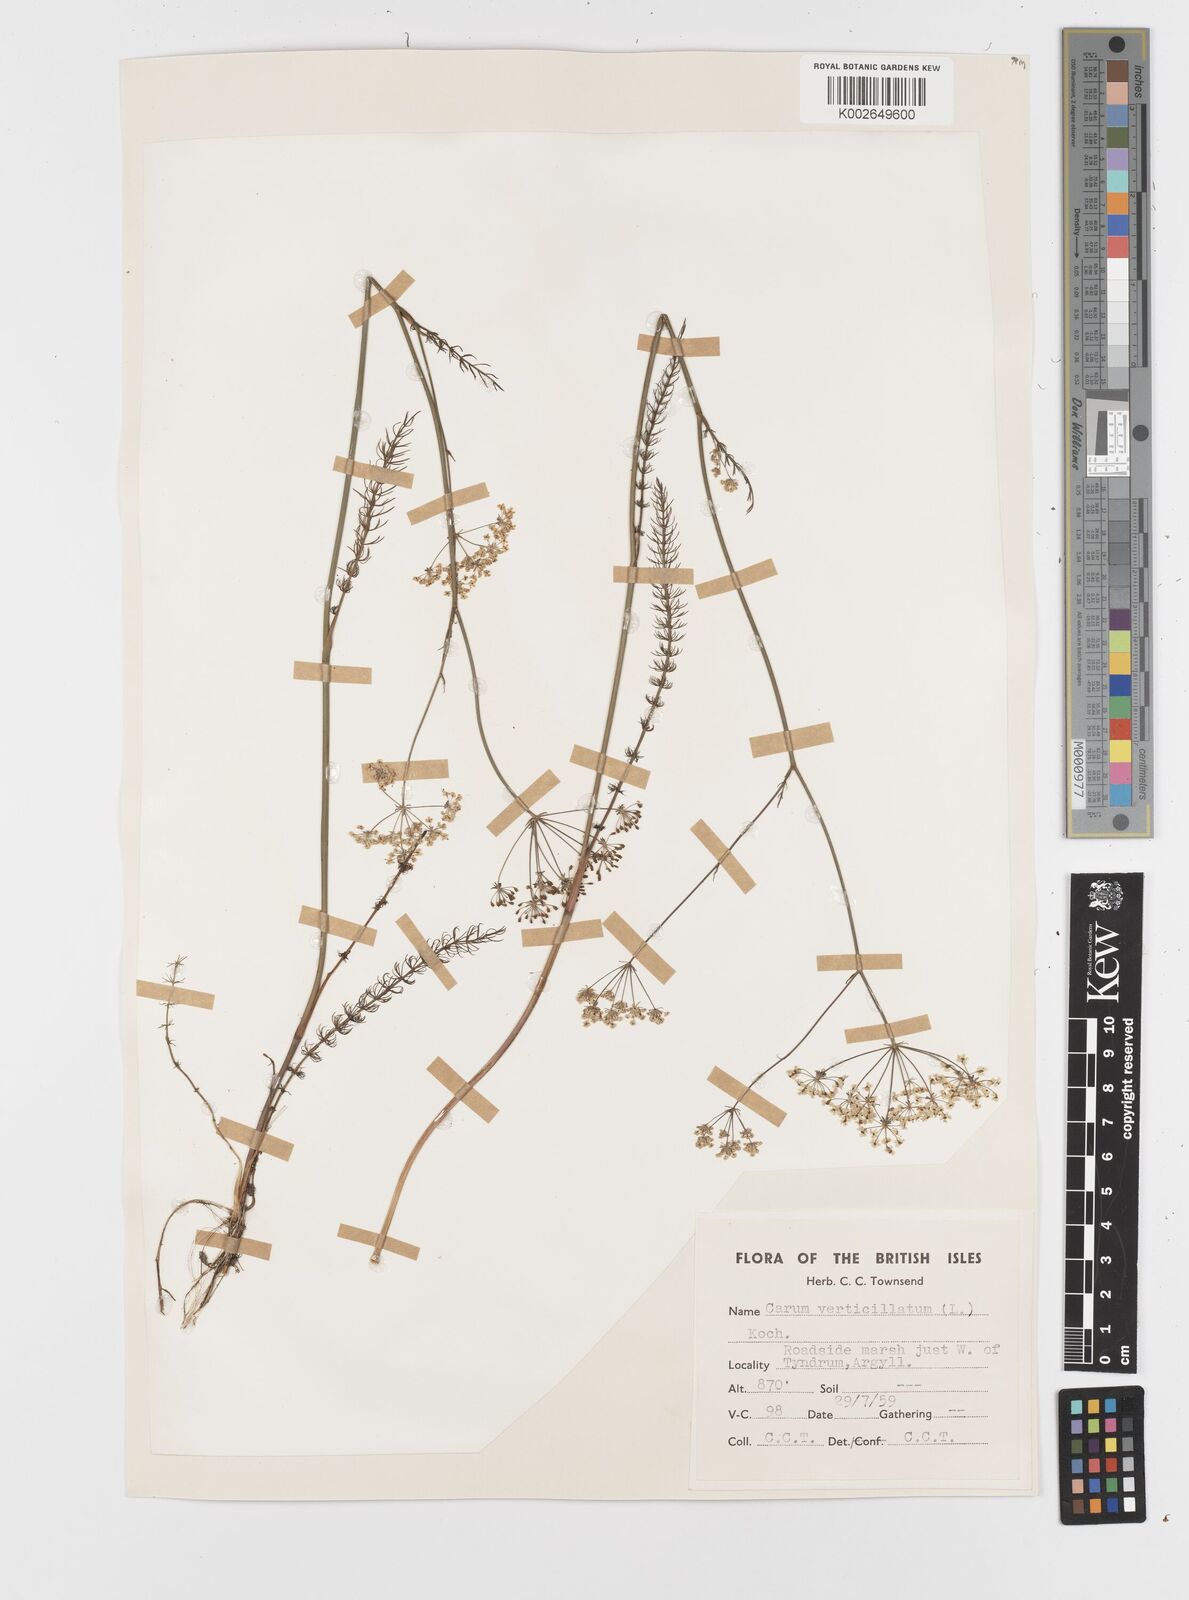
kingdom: Plantae
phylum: Tracheophyta
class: Magnoliopsida
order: Apiales
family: Apiaceae
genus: Trocdaris
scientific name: Trocdaris verticillatum
